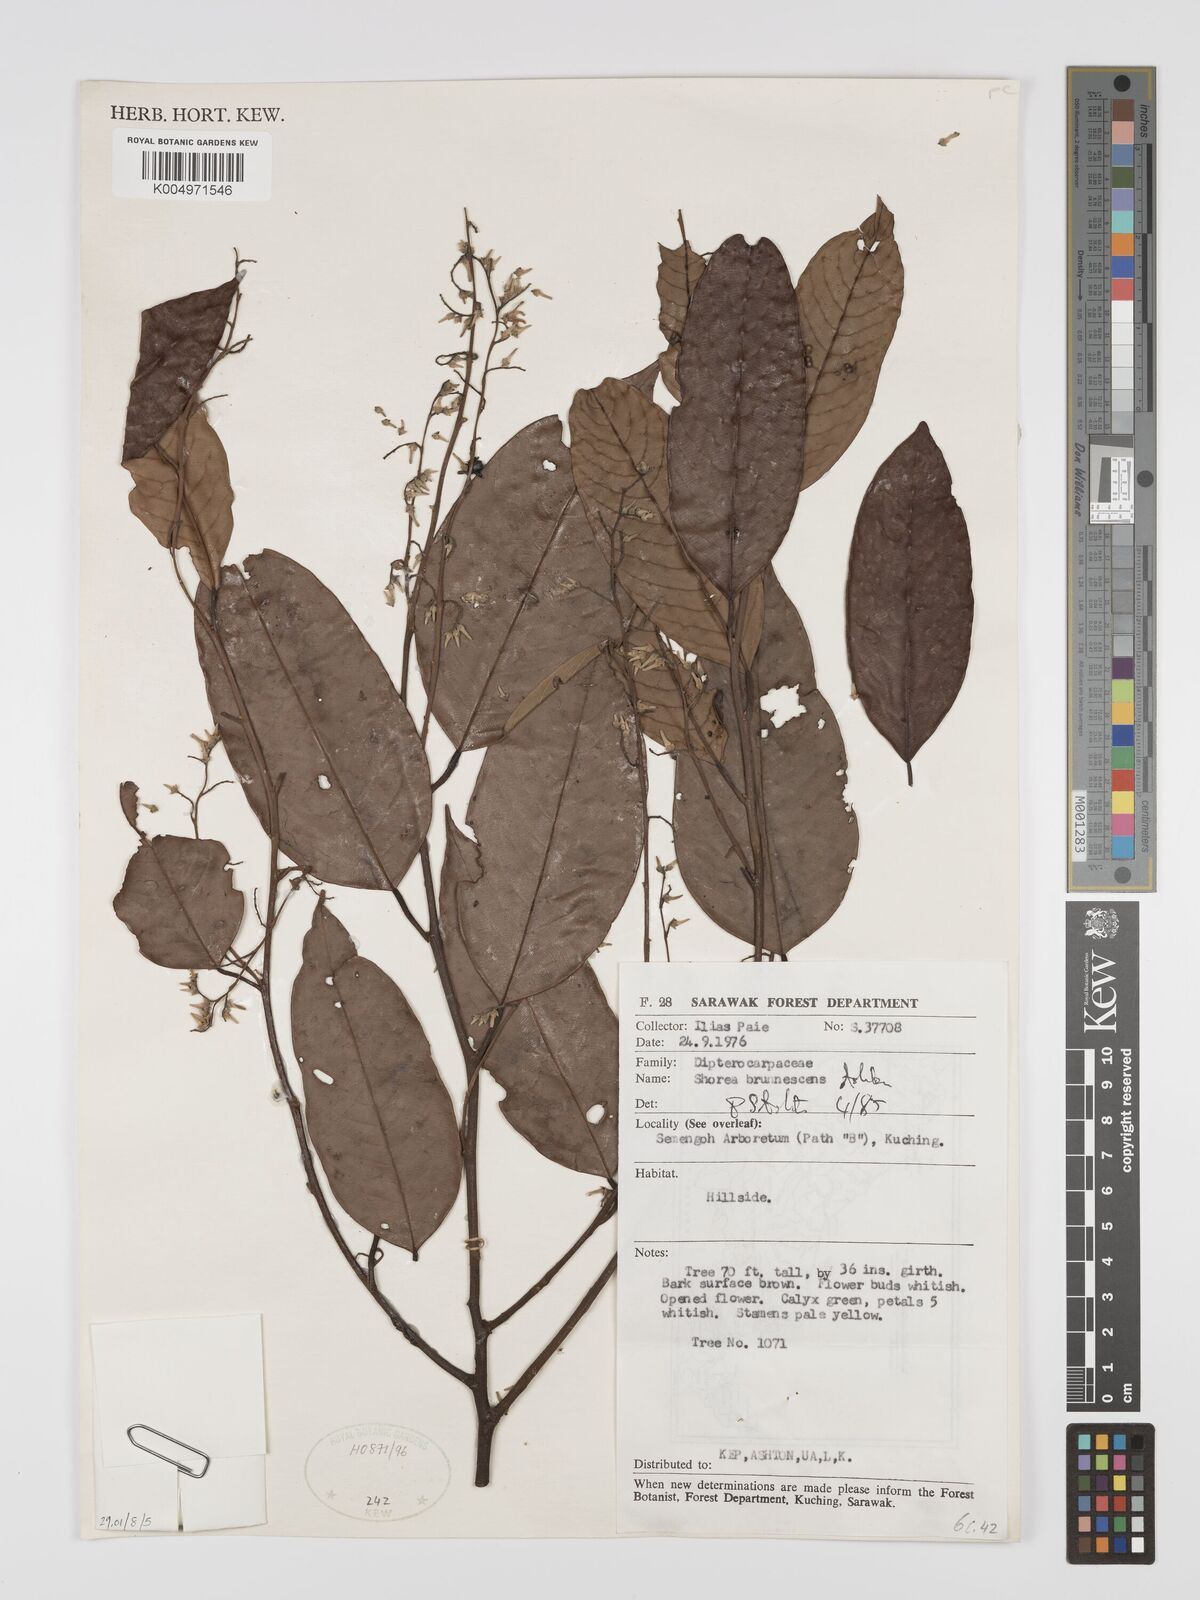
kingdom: Plantae
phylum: Tracheophyta
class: Magnoliopsida
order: Malvales
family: Dipterocarpaceae
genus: Shorea
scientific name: Shorea brunnescens
